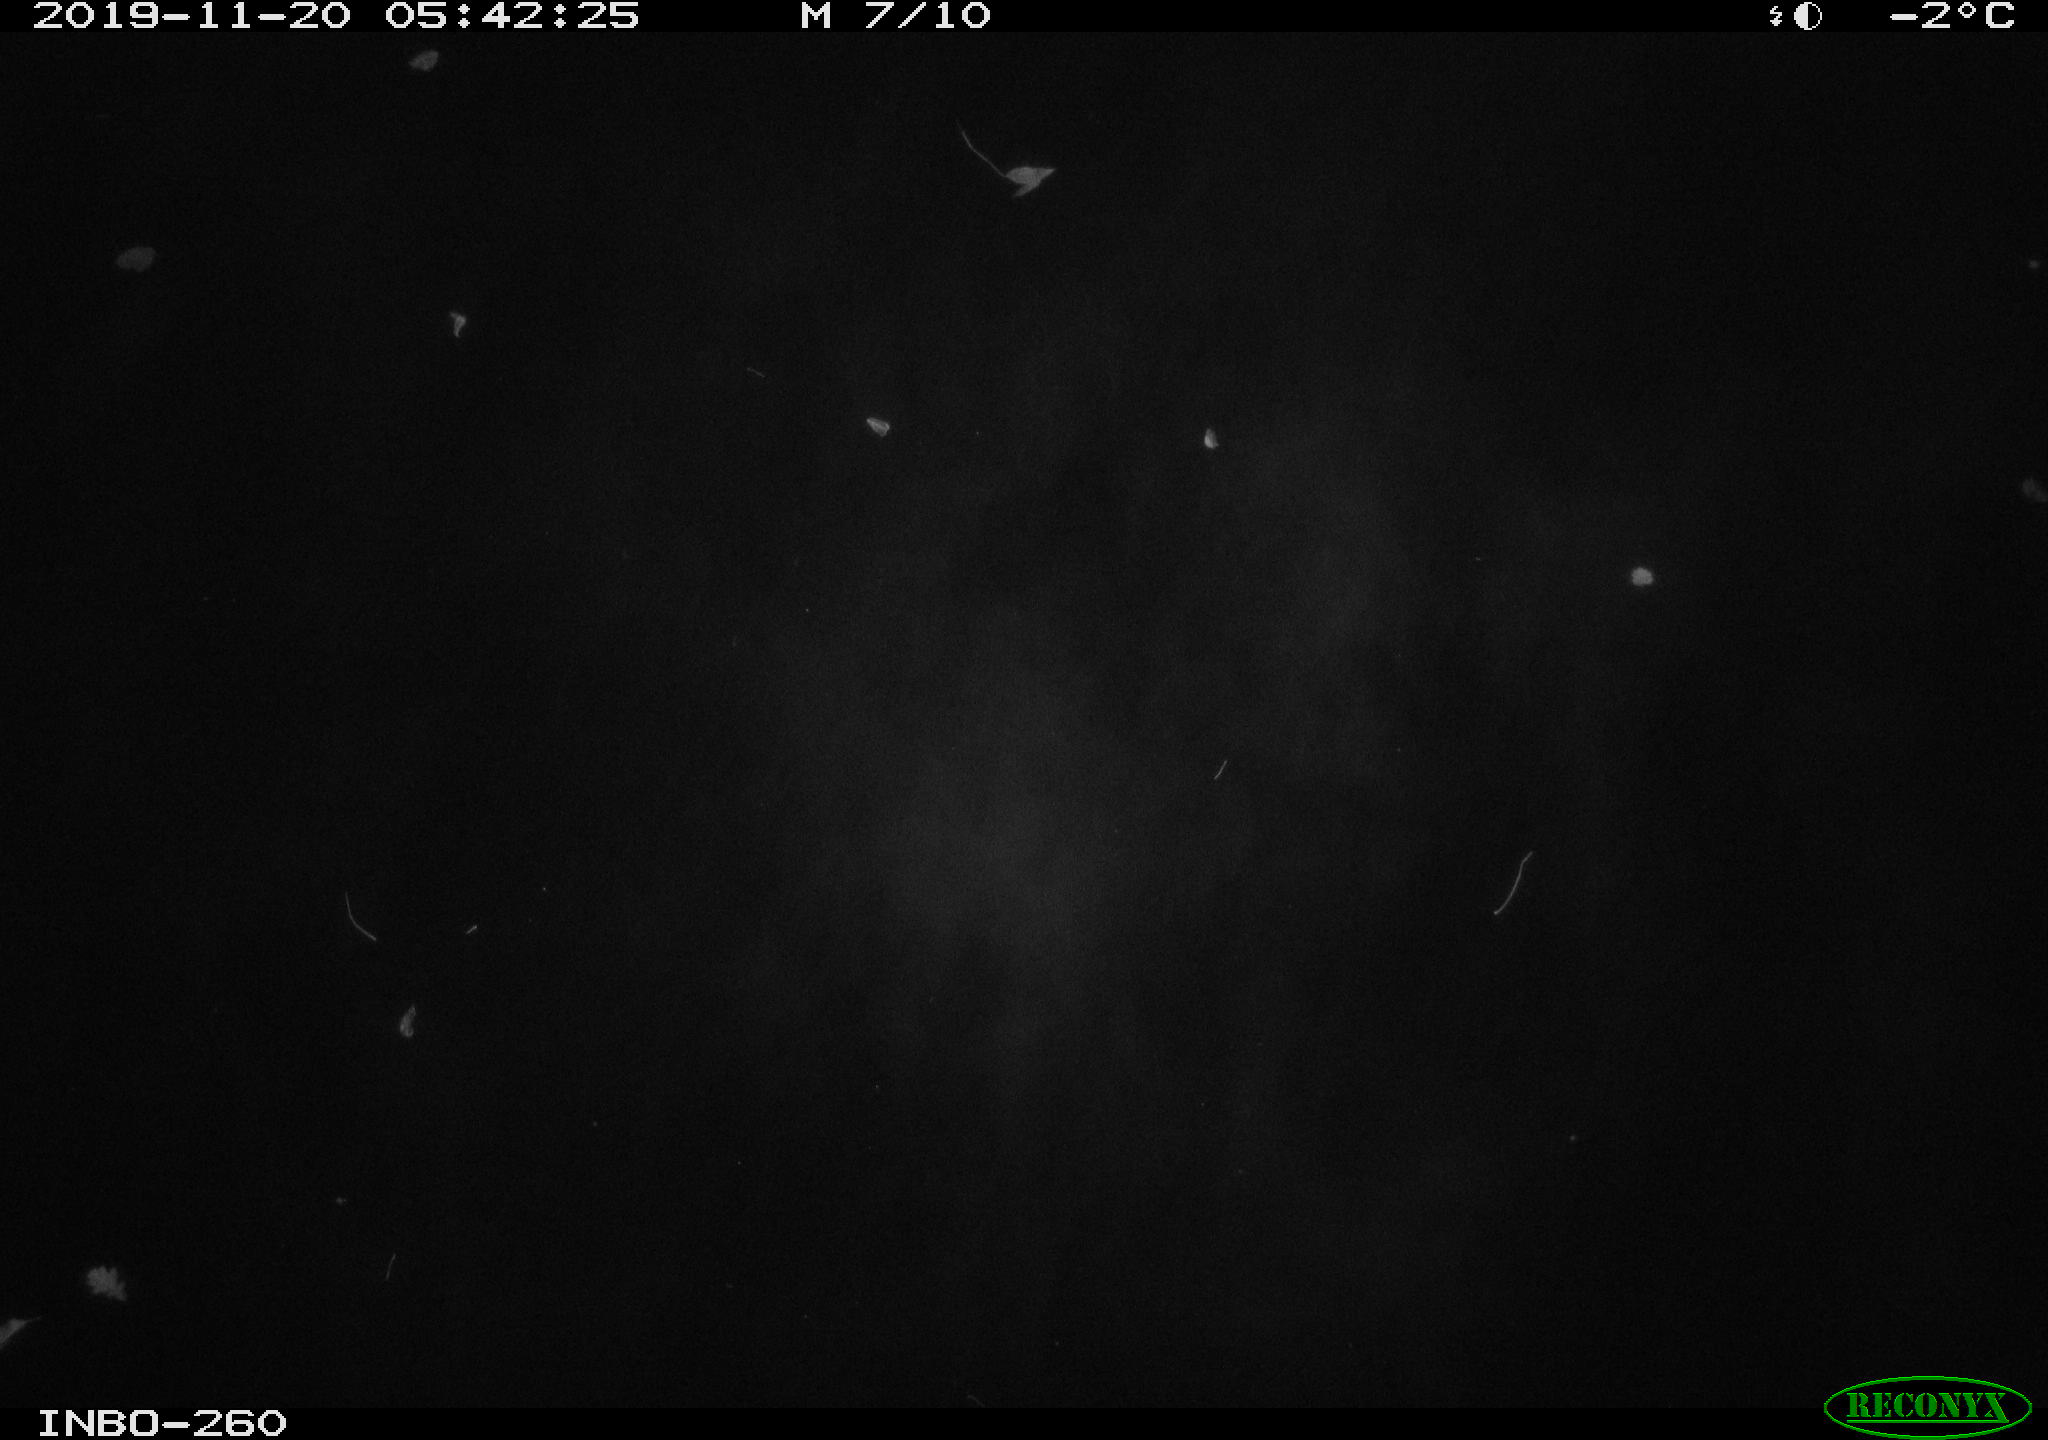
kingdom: Animalia
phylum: Chordata
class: Aves
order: Anseriformes
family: Anatidae
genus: Anas
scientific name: Anas platyrhynchos
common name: Mallard
